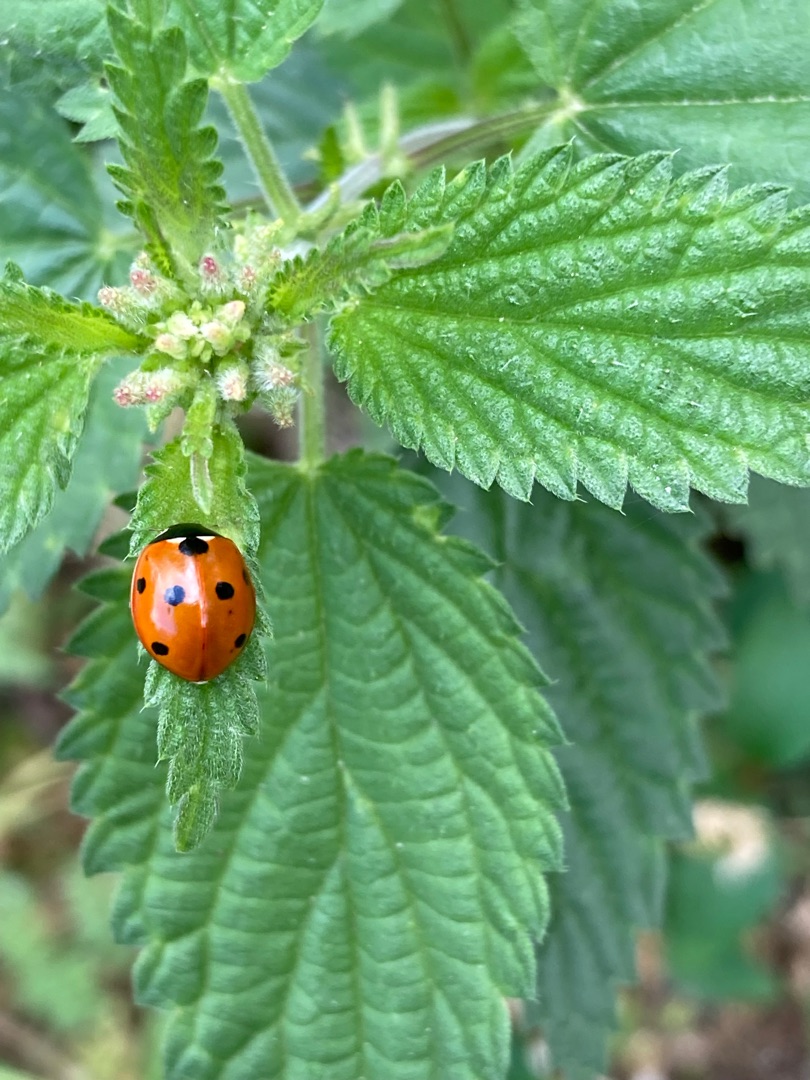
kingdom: Animalia
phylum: Arthropoda
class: Insecta
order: Coleoptera
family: Coccinellidae
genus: Coccinella
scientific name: Coccinella septempunctata
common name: Syvplettet mariehøne
